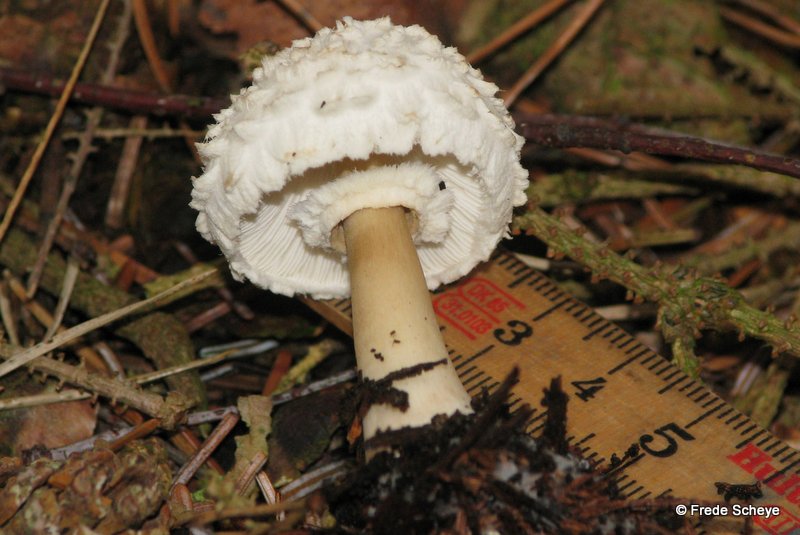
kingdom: Fungi
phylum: Basidiomycota
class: Agaricomycetes
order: Agaricales
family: Agaricaceae
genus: Leucoagaricus
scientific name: Leucoagaricus nympharum
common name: gran-silkehat
